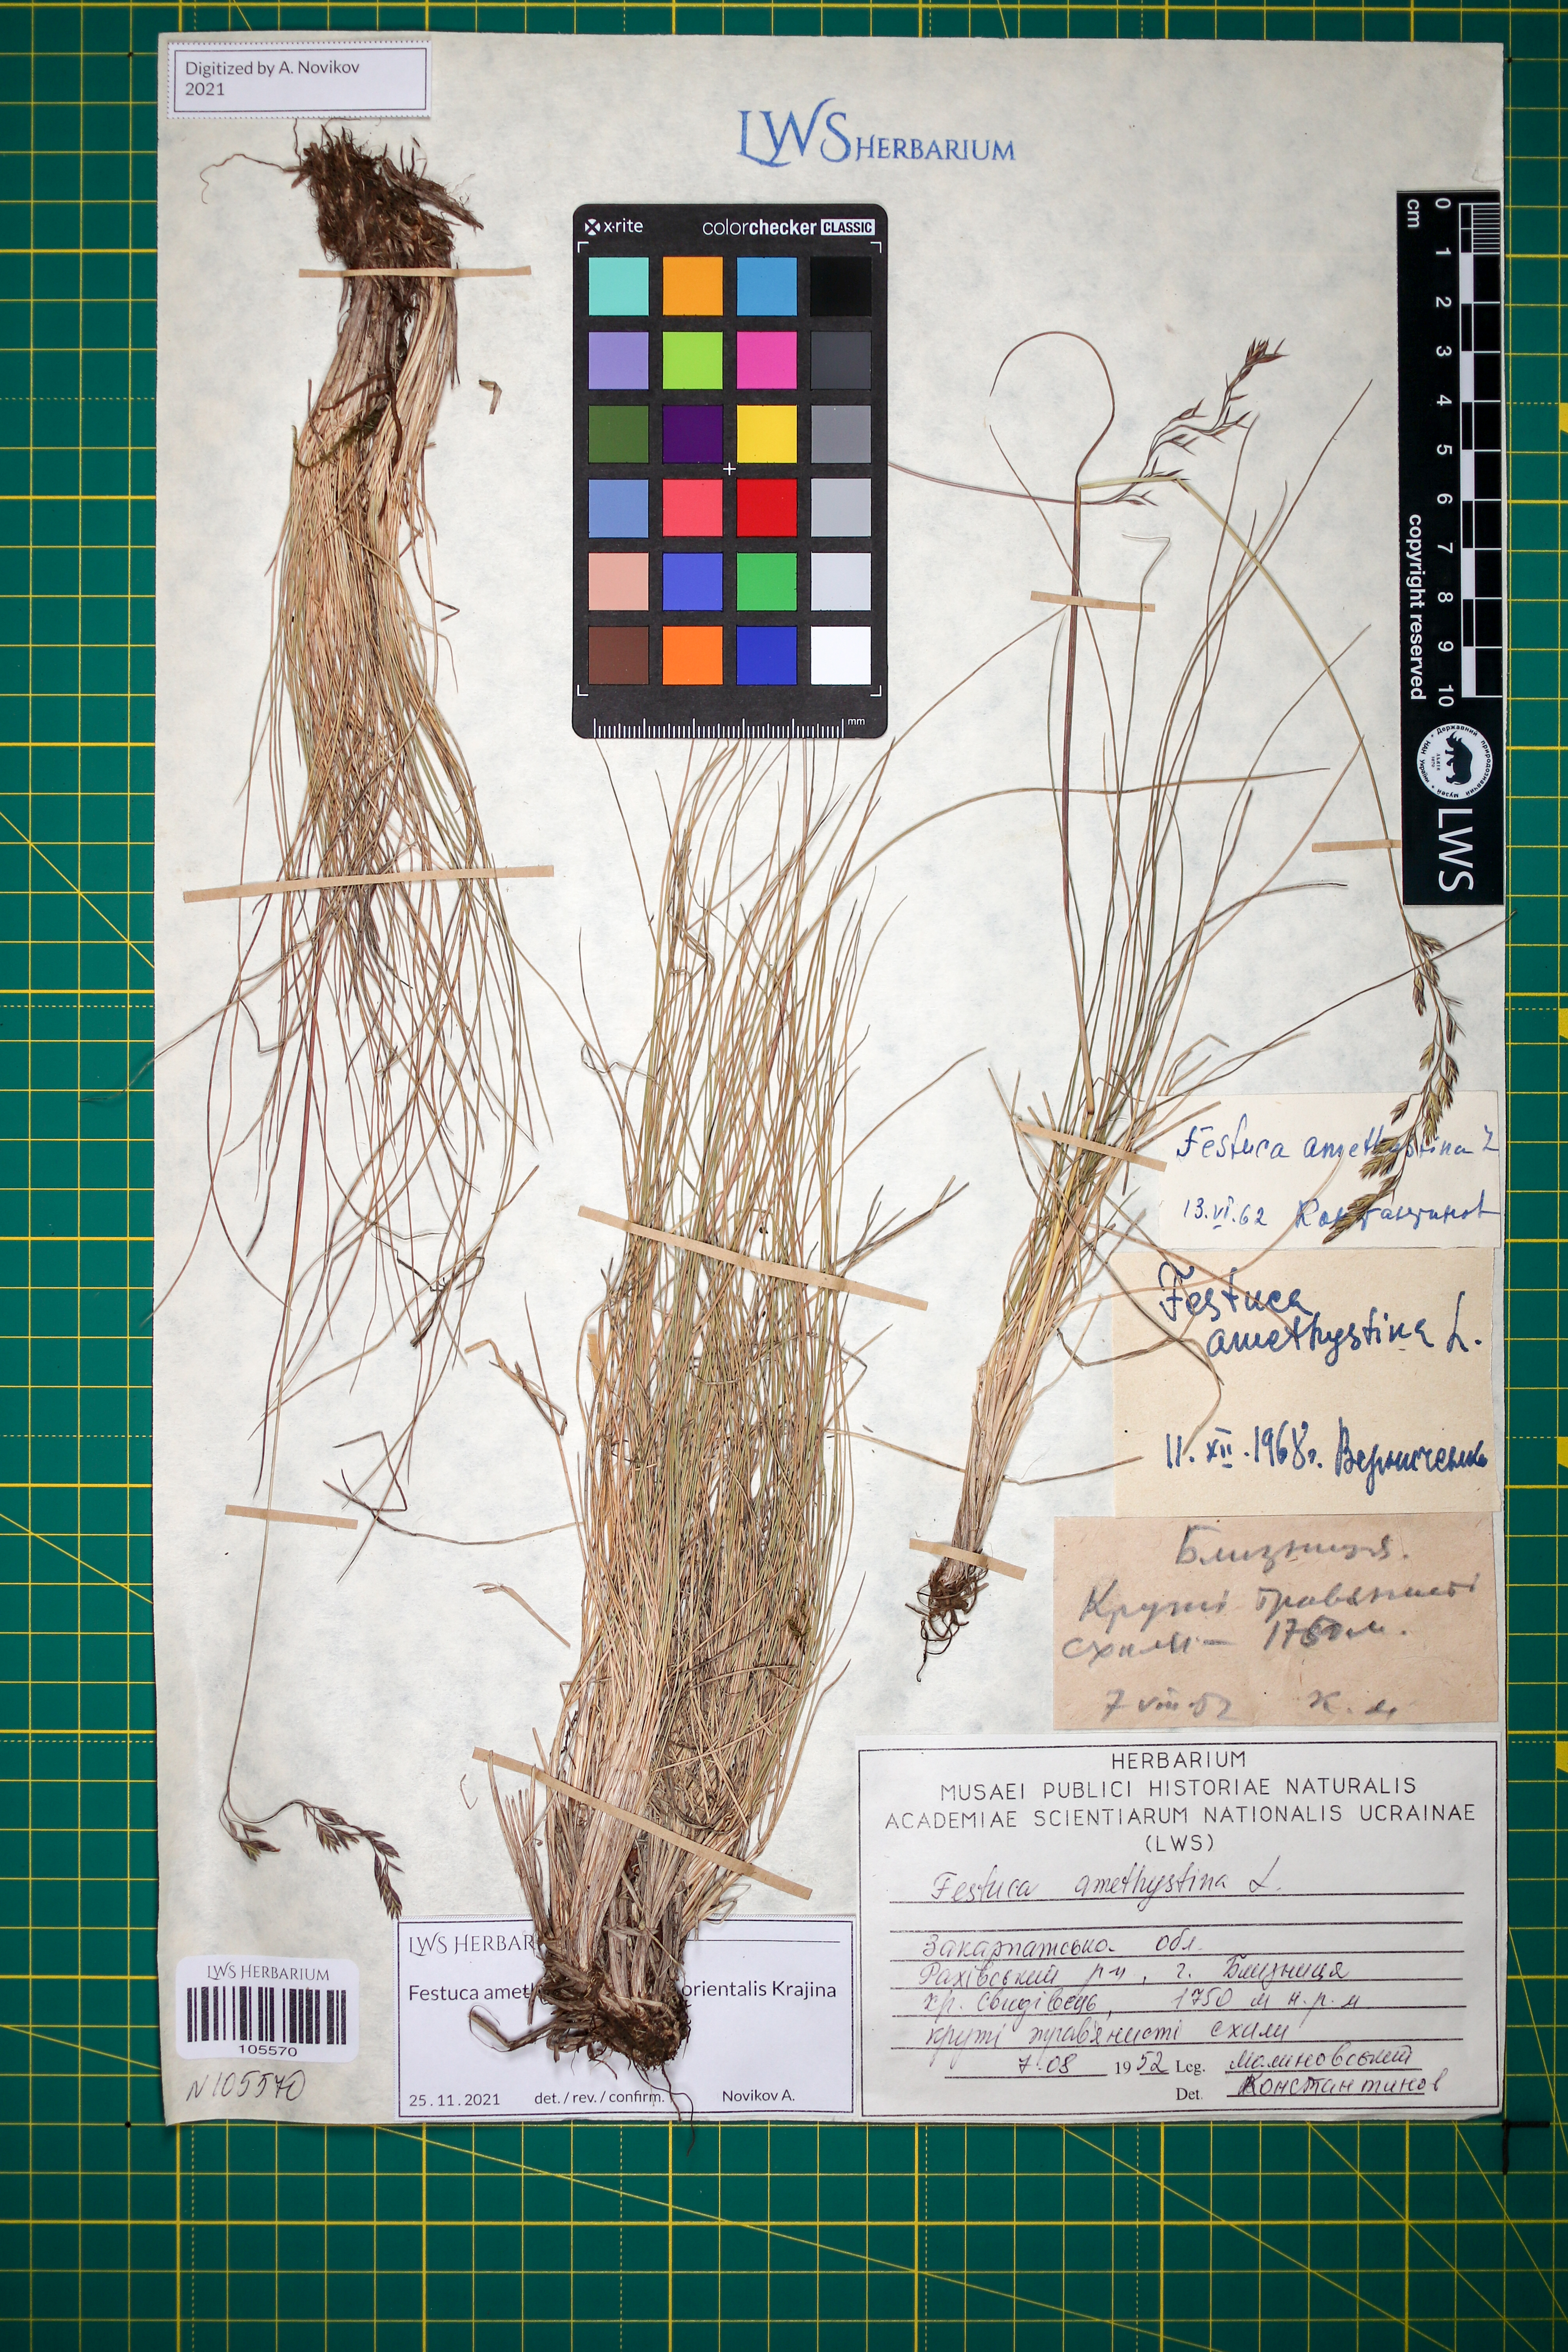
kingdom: Plantae
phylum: Tracheophyta
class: Liliopsida
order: Poales
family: Poaceae
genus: Festuca
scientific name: Festuca amethystina
